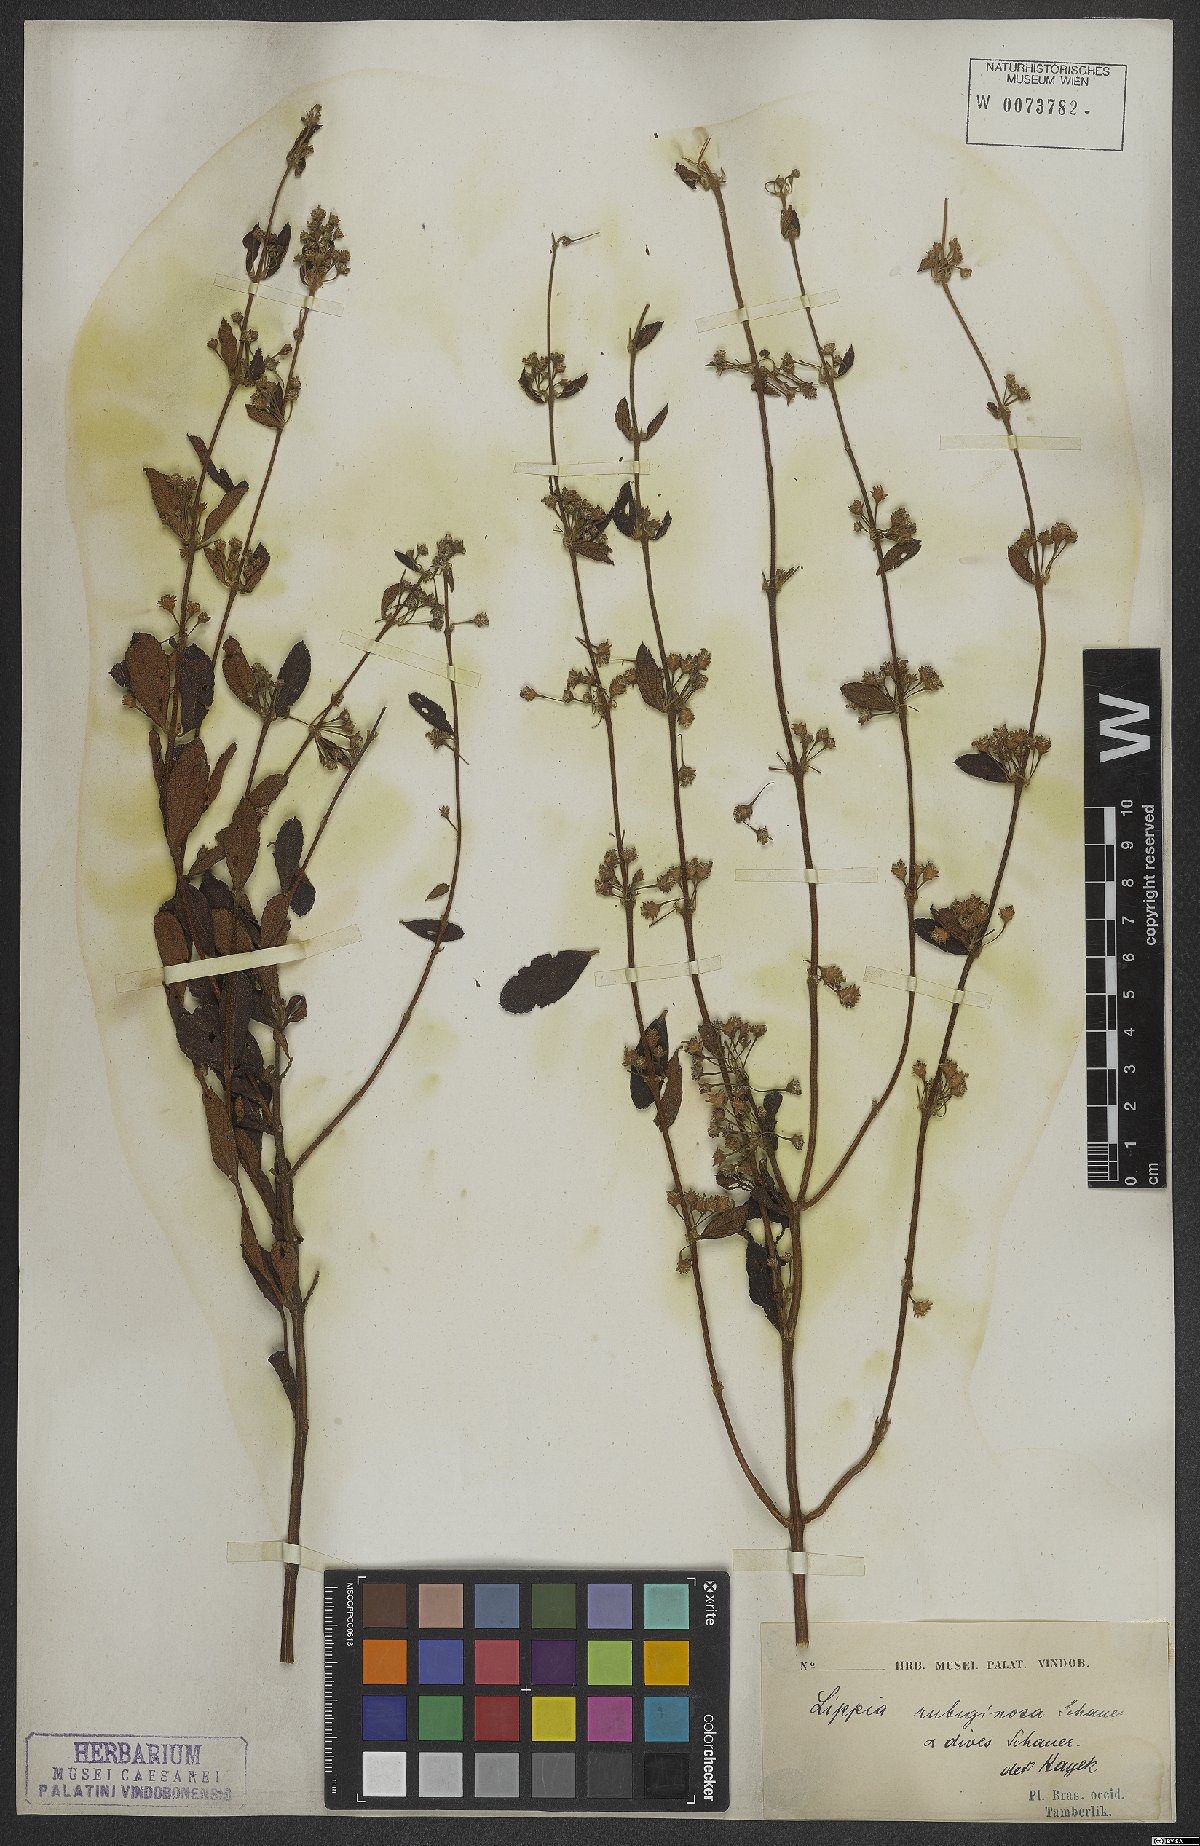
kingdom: Plantae
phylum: Tracheophyta
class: Magnoliopsida
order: Lamiales
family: Verbenaceae
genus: Lippia
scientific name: Lippia origanoides
